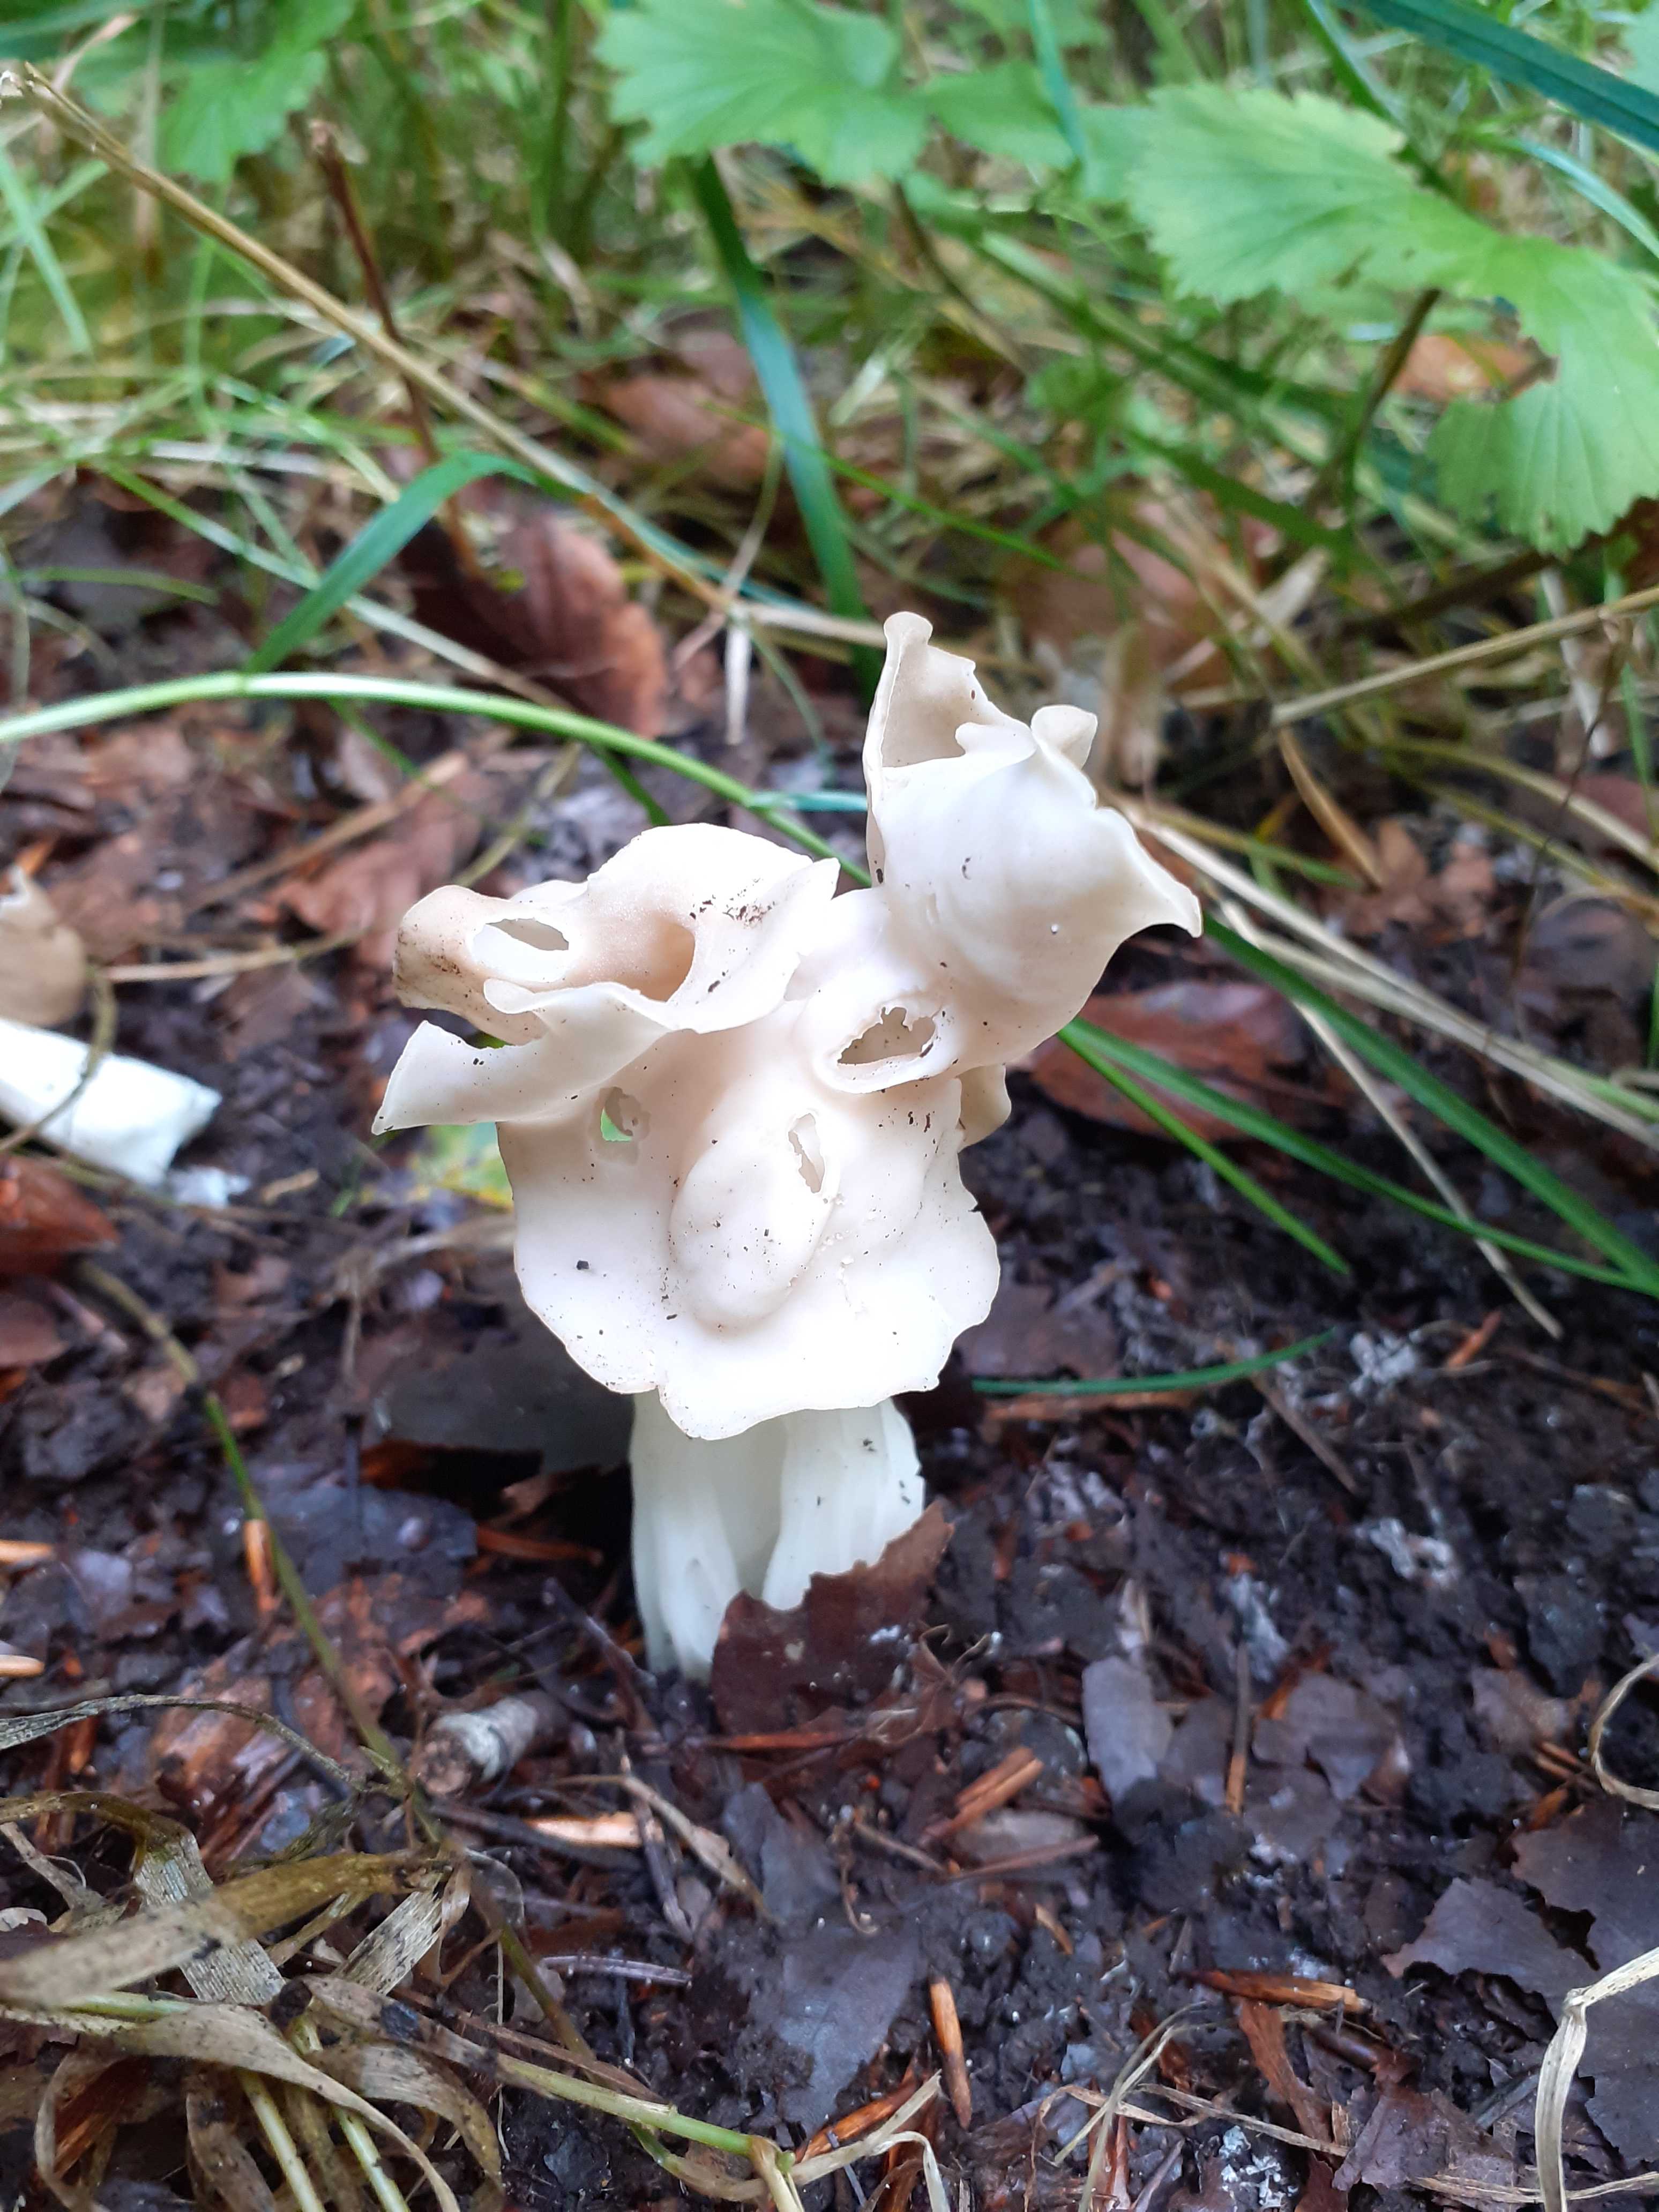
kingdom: Fungi
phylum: Ascomycota
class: Pezizomycetes
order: Pezizales
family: Helvellaceae
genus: Helvella
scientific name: Helvella crispa
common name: kruset foldhat
